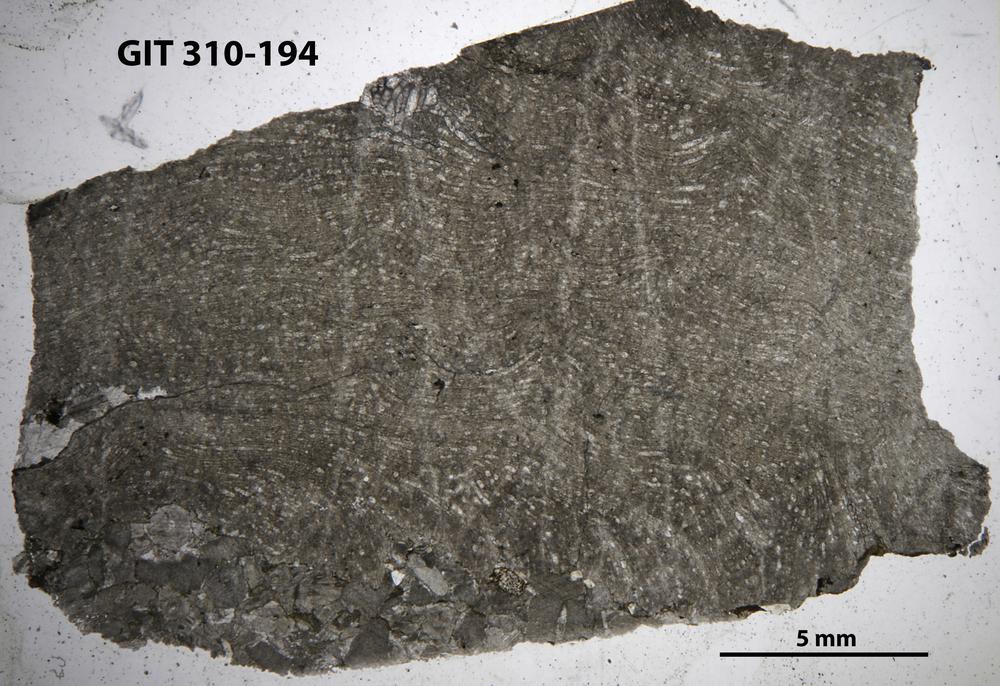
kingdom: Animalia
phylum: Porifera
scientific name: Porifera
